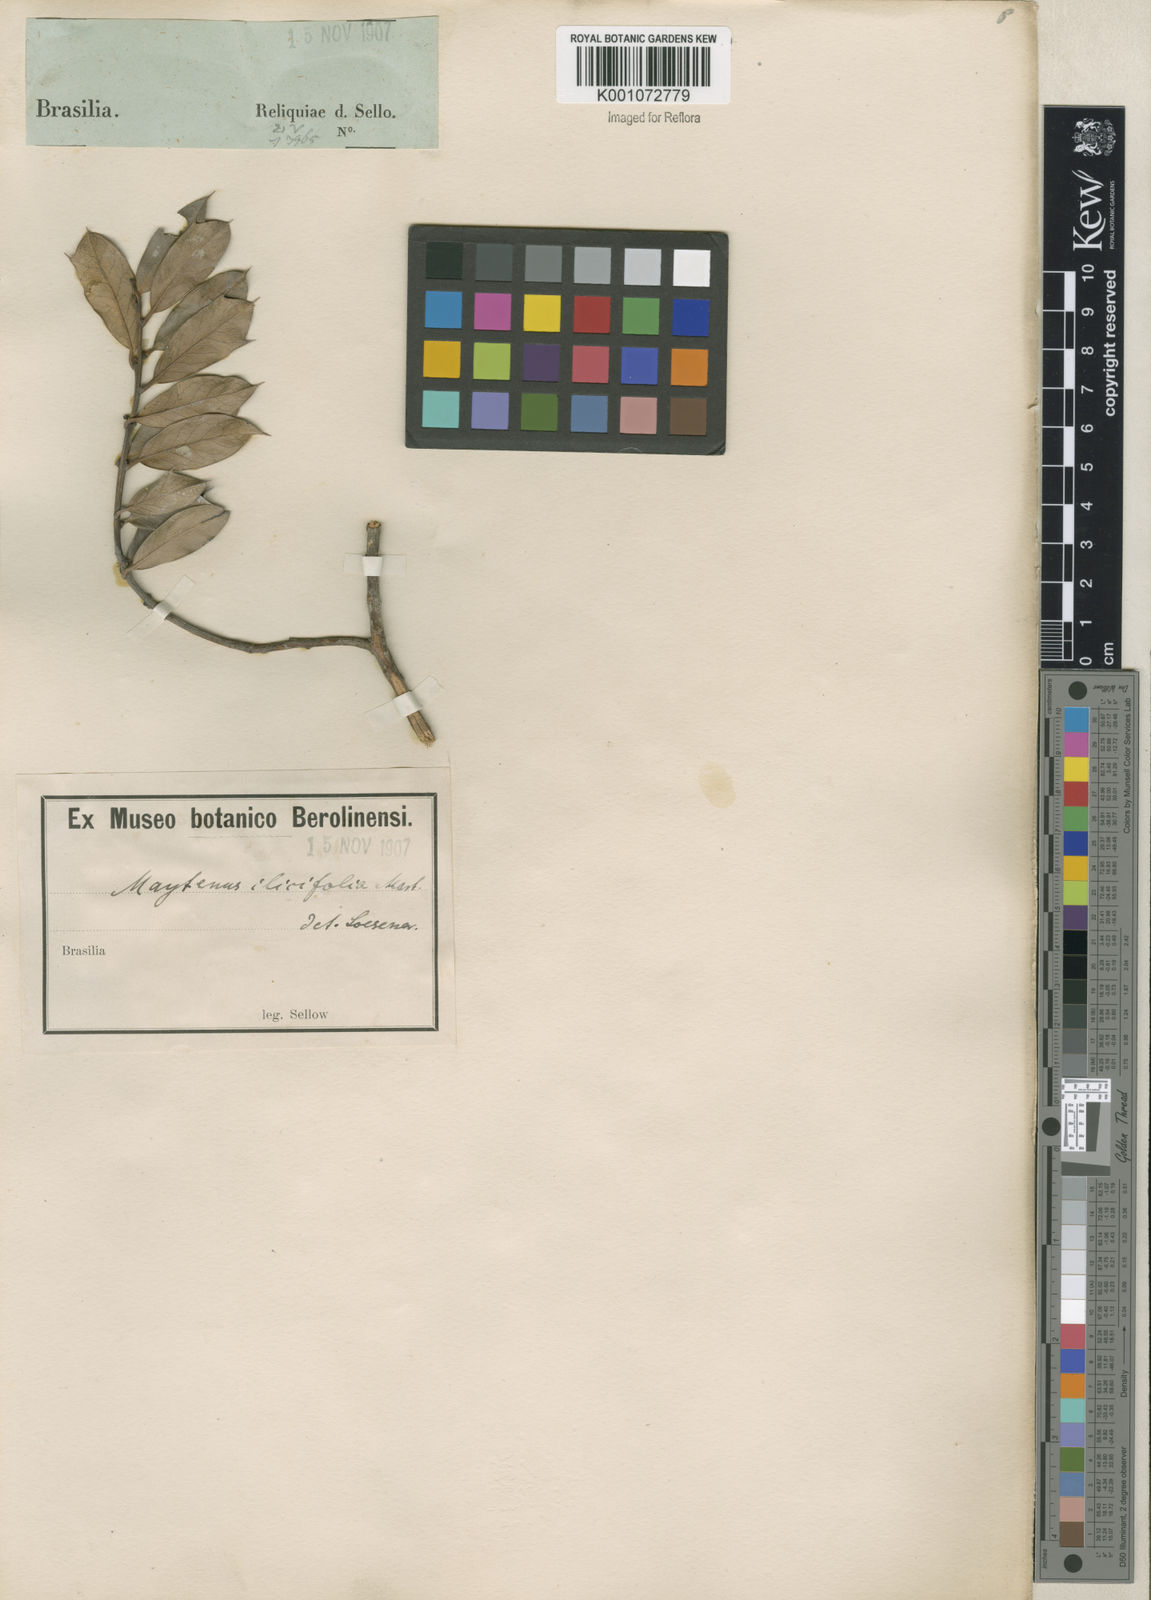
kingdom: Plantae
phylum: Tracheophyta
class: Magnoliopsida
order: Celastrales
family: Celastraceae
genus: Monteverdia
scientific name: Monteverdia ilicifolia
